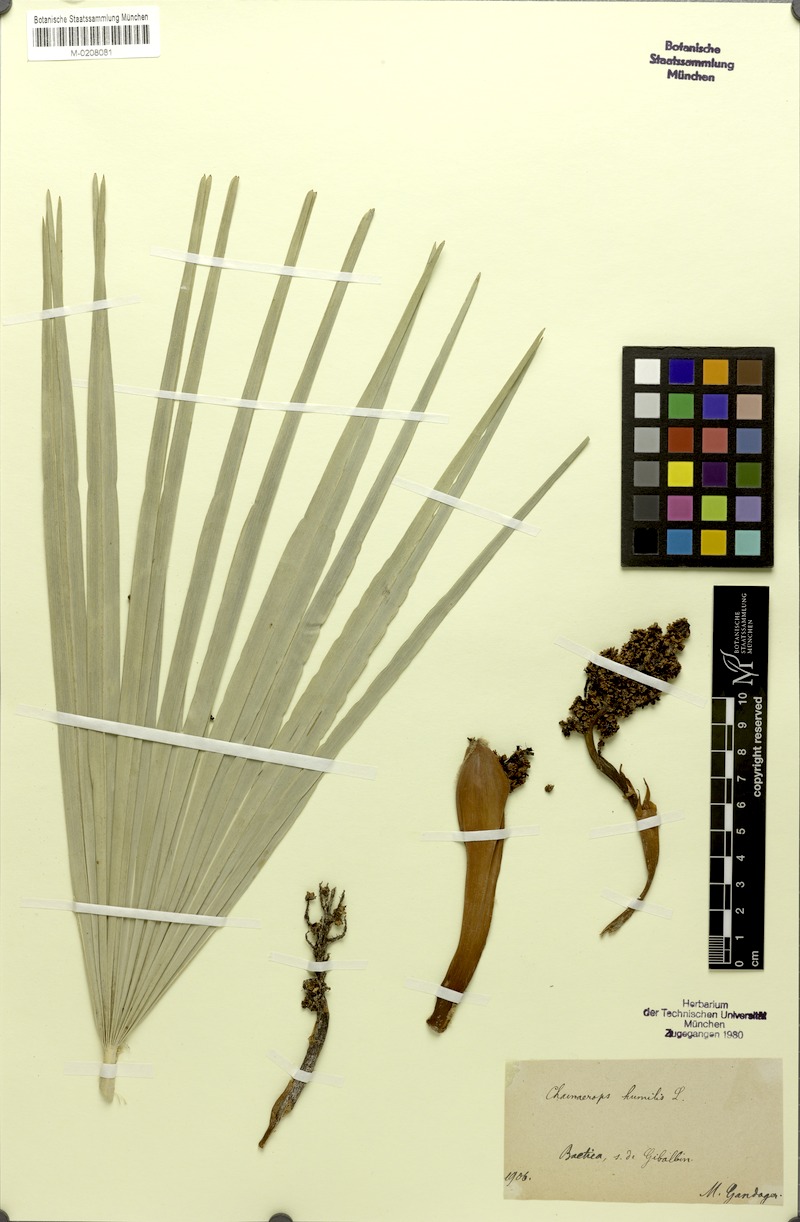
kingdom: Plantae
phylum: Tracheophyta
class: Liliopsida
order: Arecales
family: Arecaceae
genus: Chamaerops
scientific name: Chamaerops humilis
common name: Dwarf fan palm
